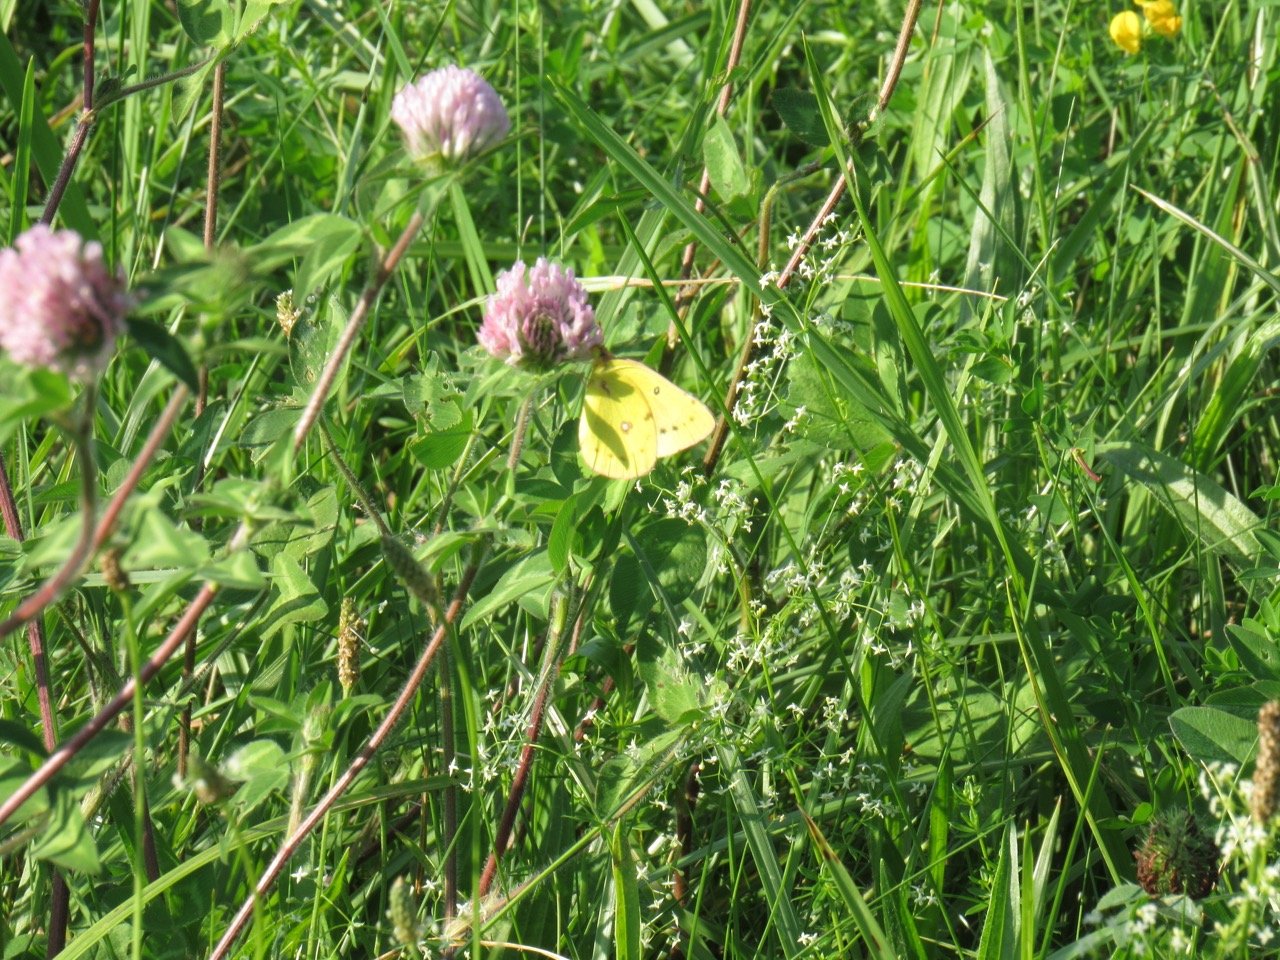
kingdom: Animalia
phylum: Arthropoda
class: Insecta
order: Lepidoptera
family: Pieridae
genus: Colias
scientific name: Colias philodice
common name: Clouded Sulphur
